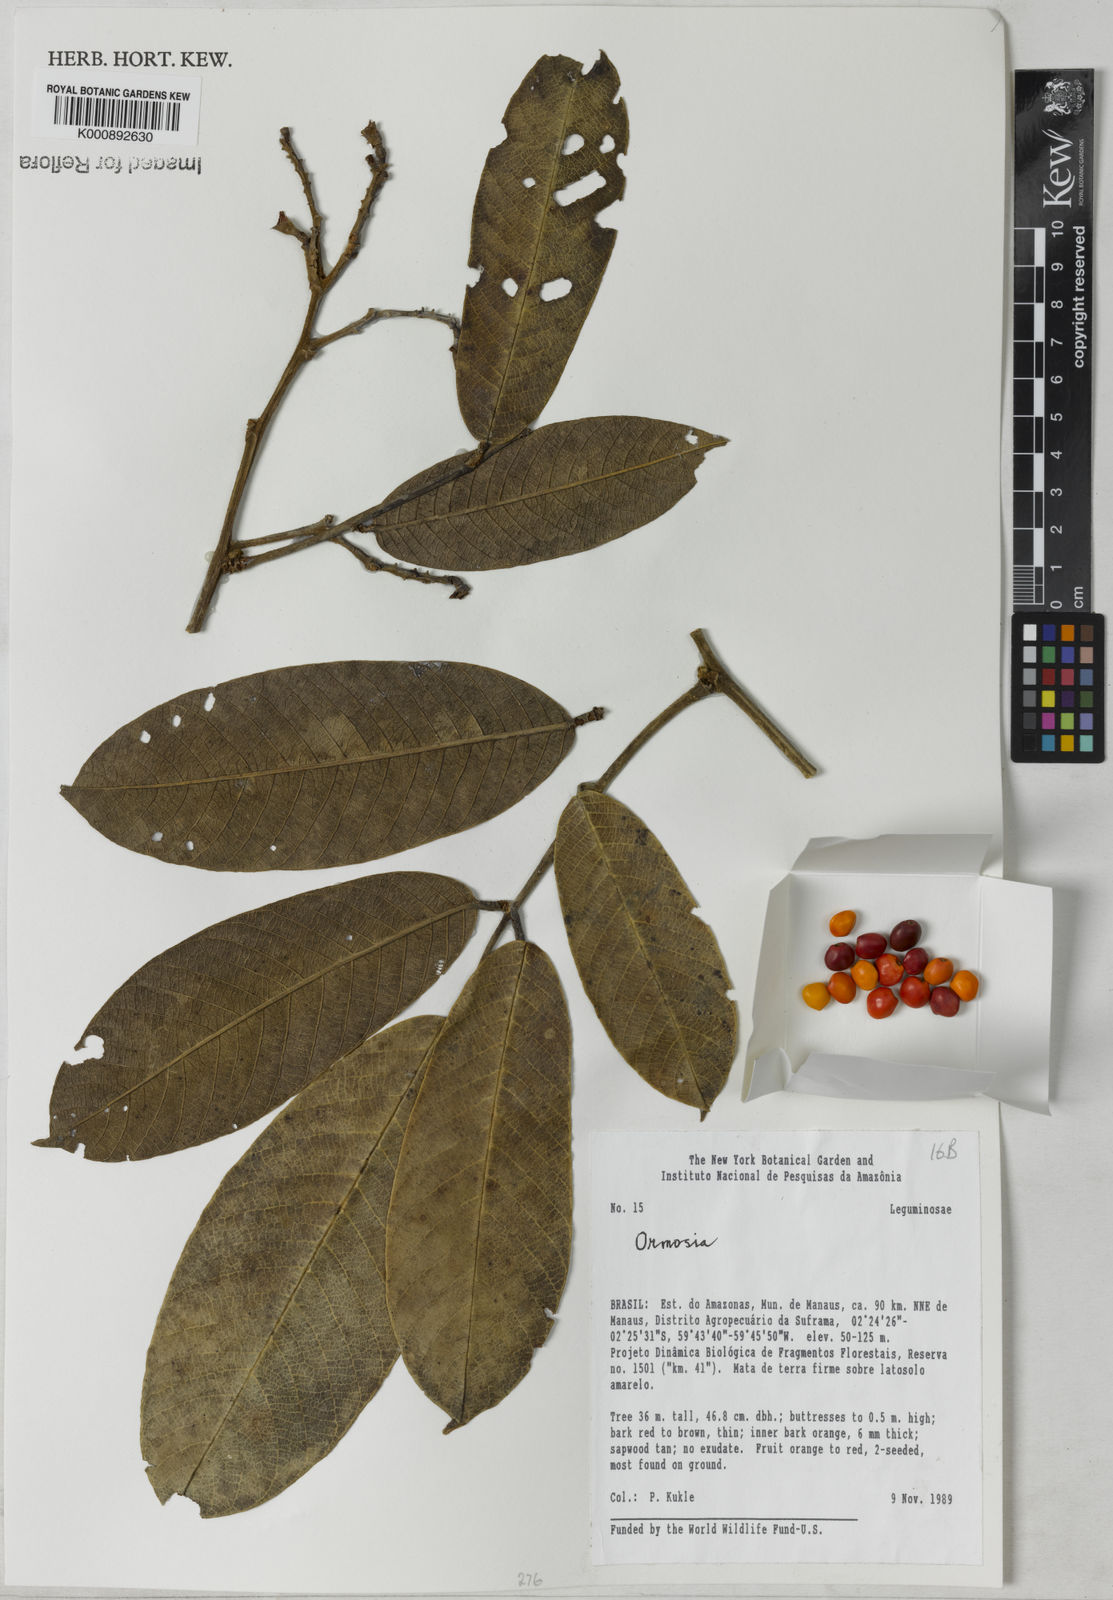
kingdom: Plantae
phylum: Tracheophyta
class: Magnoliopsida
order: Fabales
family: Fabaceae
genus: Ormosia
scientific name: Ormosia
